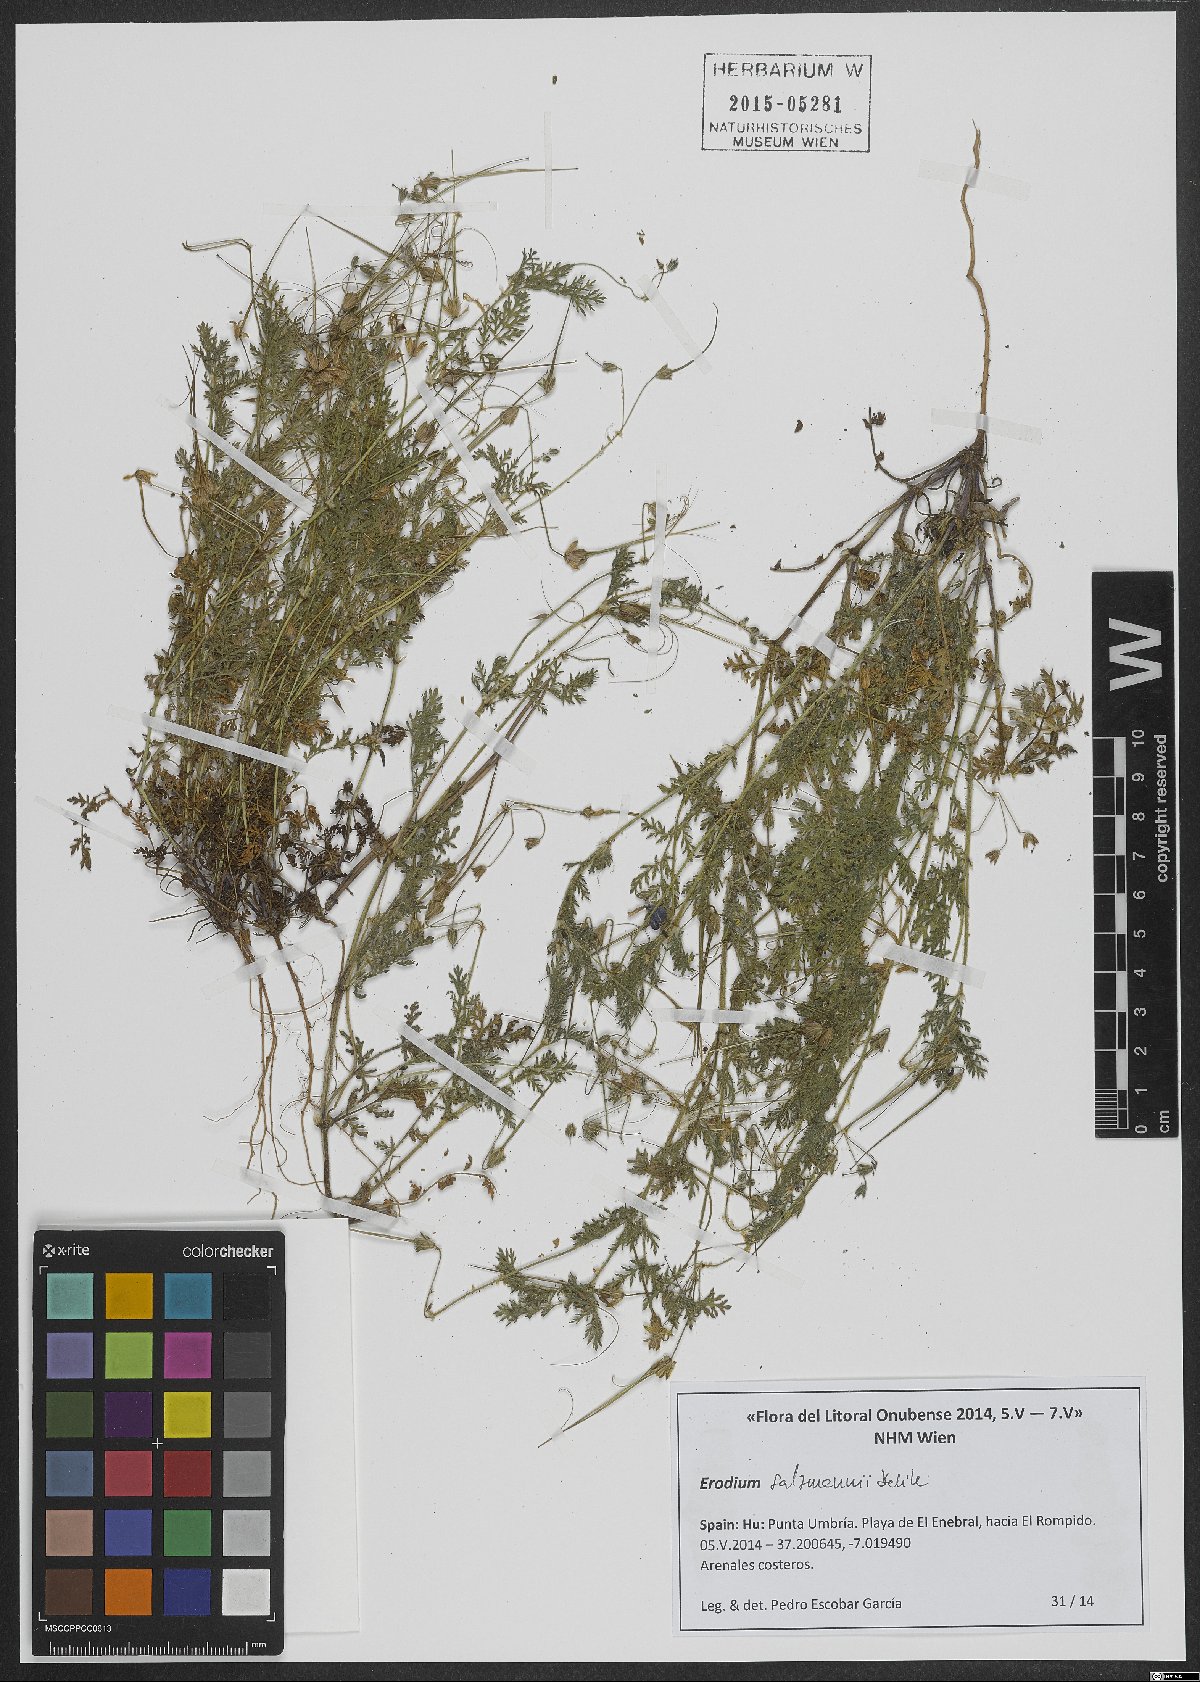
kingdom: Plantae
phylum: Tracheophyta
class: Magnoliopsida
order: Geraniales
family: Geraniaceae
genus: Erodium
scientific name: Erodium salzmannii
